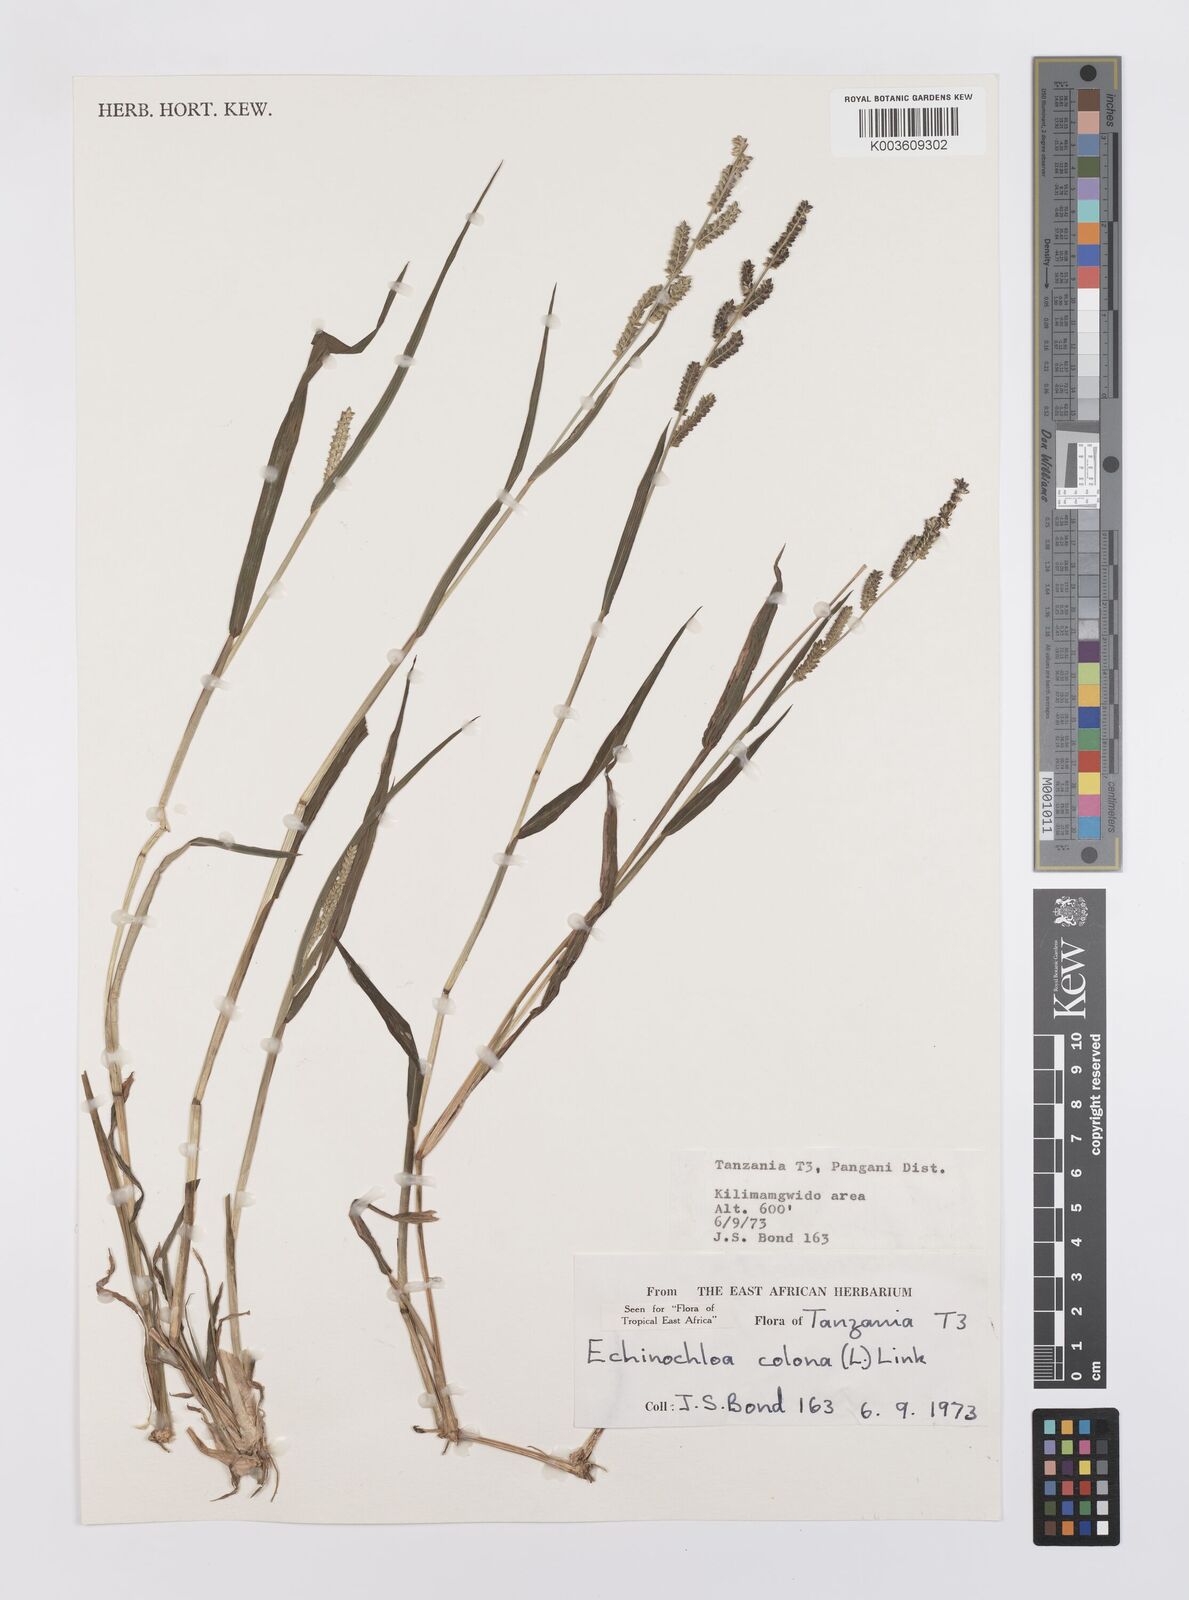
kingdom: Plantae
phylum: Tracheophyta
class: Liliopsida
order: Poales
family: Poaceae
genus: Echinochloa
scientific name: Echinochloa colonum
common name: Jungle rice
